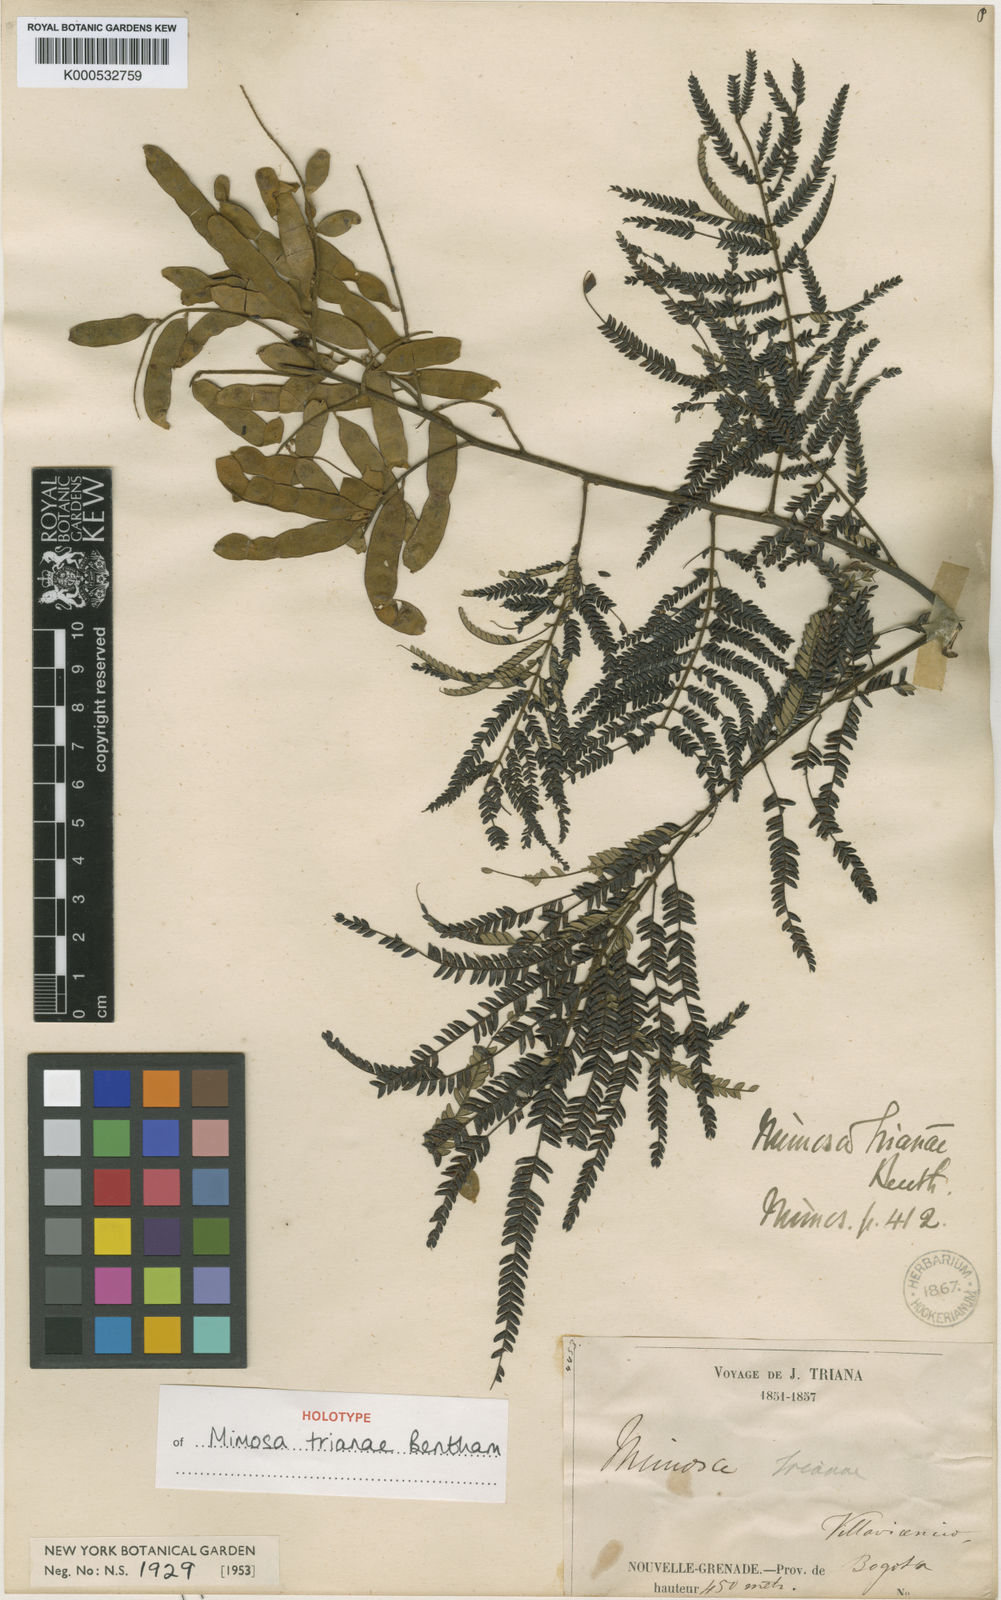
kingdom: Plantae
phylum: Tracheophyta
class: Magnoliopsida
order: Fabales
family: Fabaceae
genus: Mimosa
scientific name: Mimosa trianae
